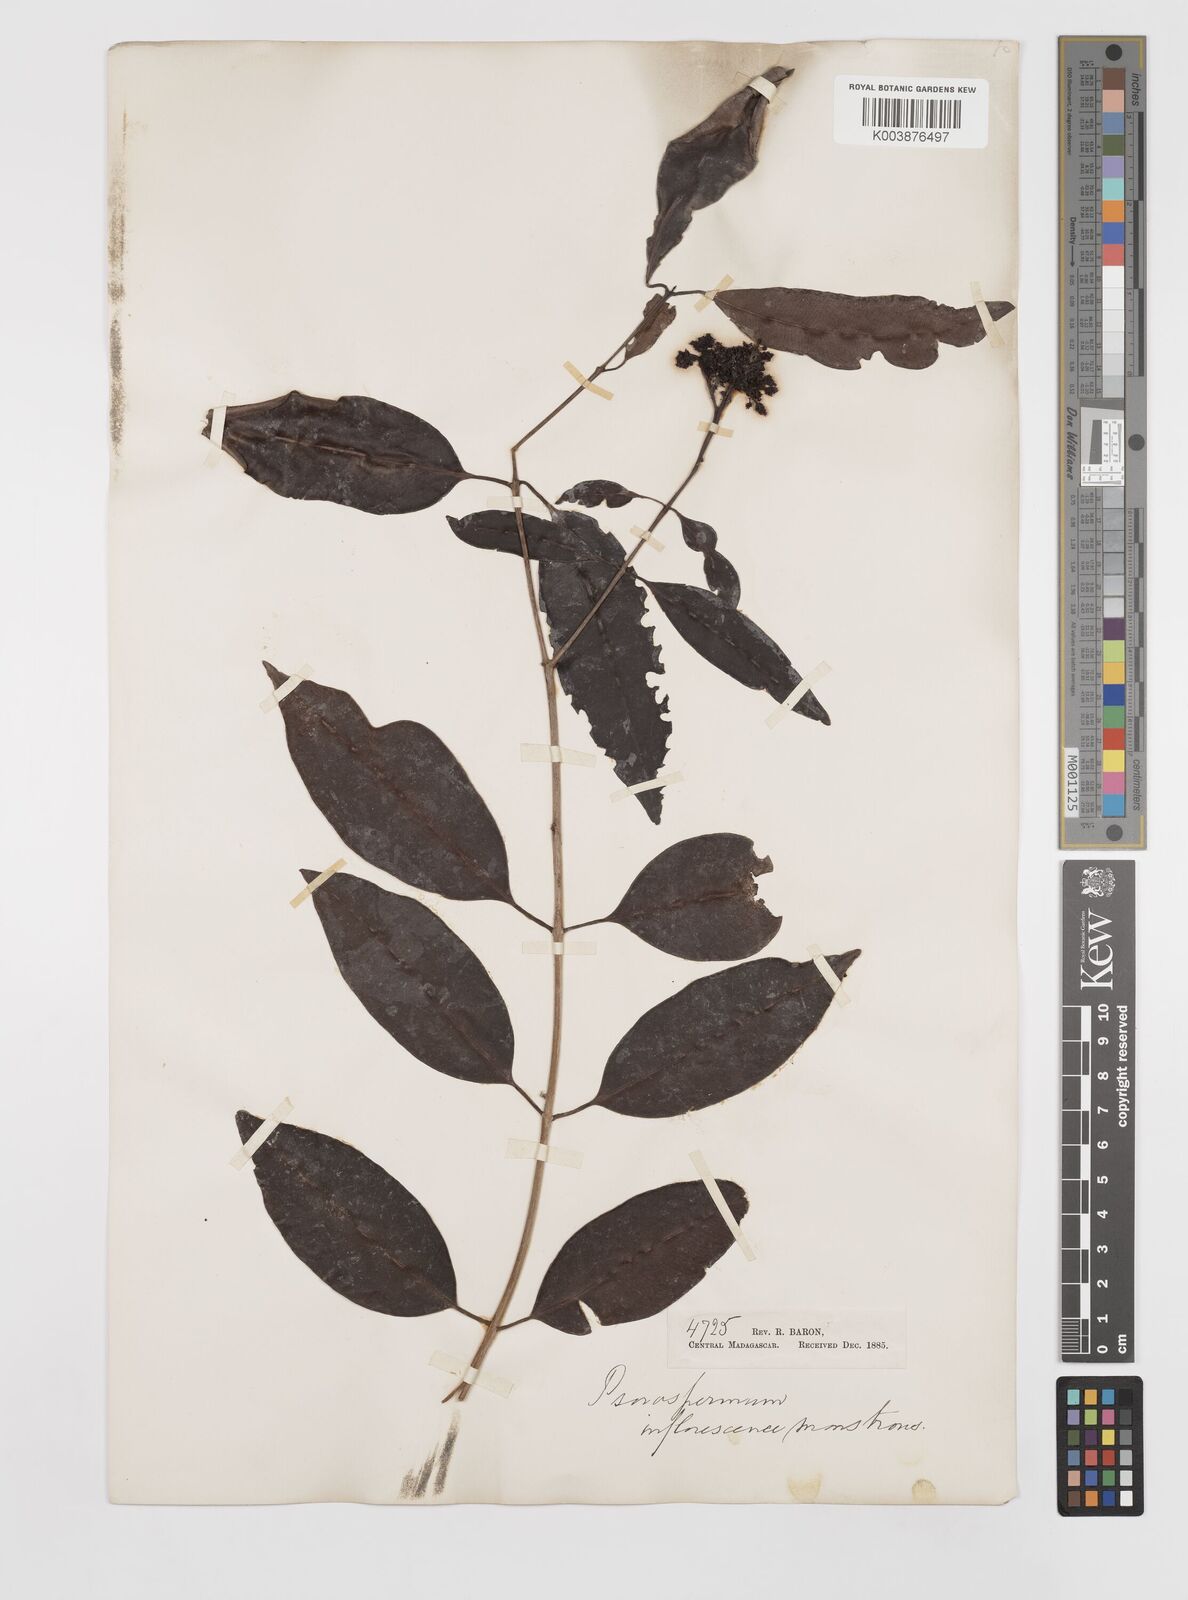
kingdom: Plantae
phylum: Tracheophyta
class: Magnoliopsida
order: Malpighiales
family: Hypericaceae
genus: Psorospermum
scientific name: Psorospermum
